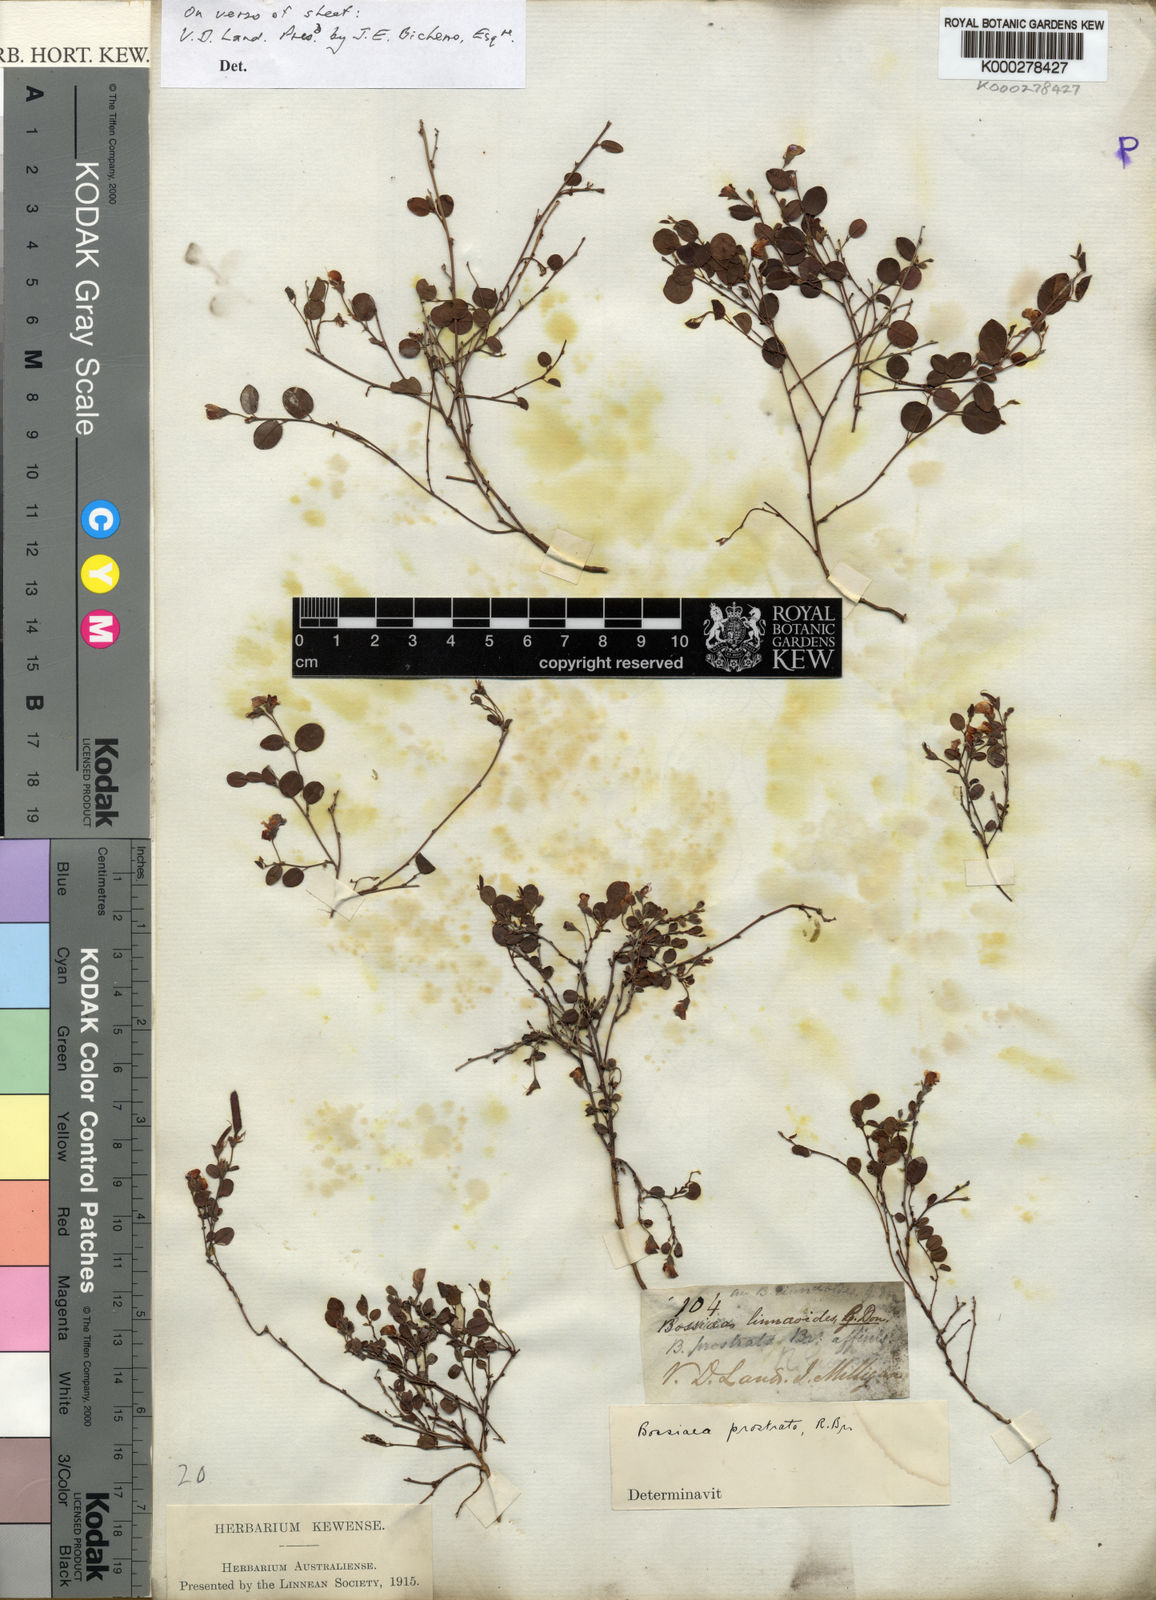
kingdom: Plantae
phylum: Tracheophyta
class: Magnoliopsida
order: Fabales
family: Fabaceae
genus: Bossiaea
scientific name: Bossiaea prostrata
